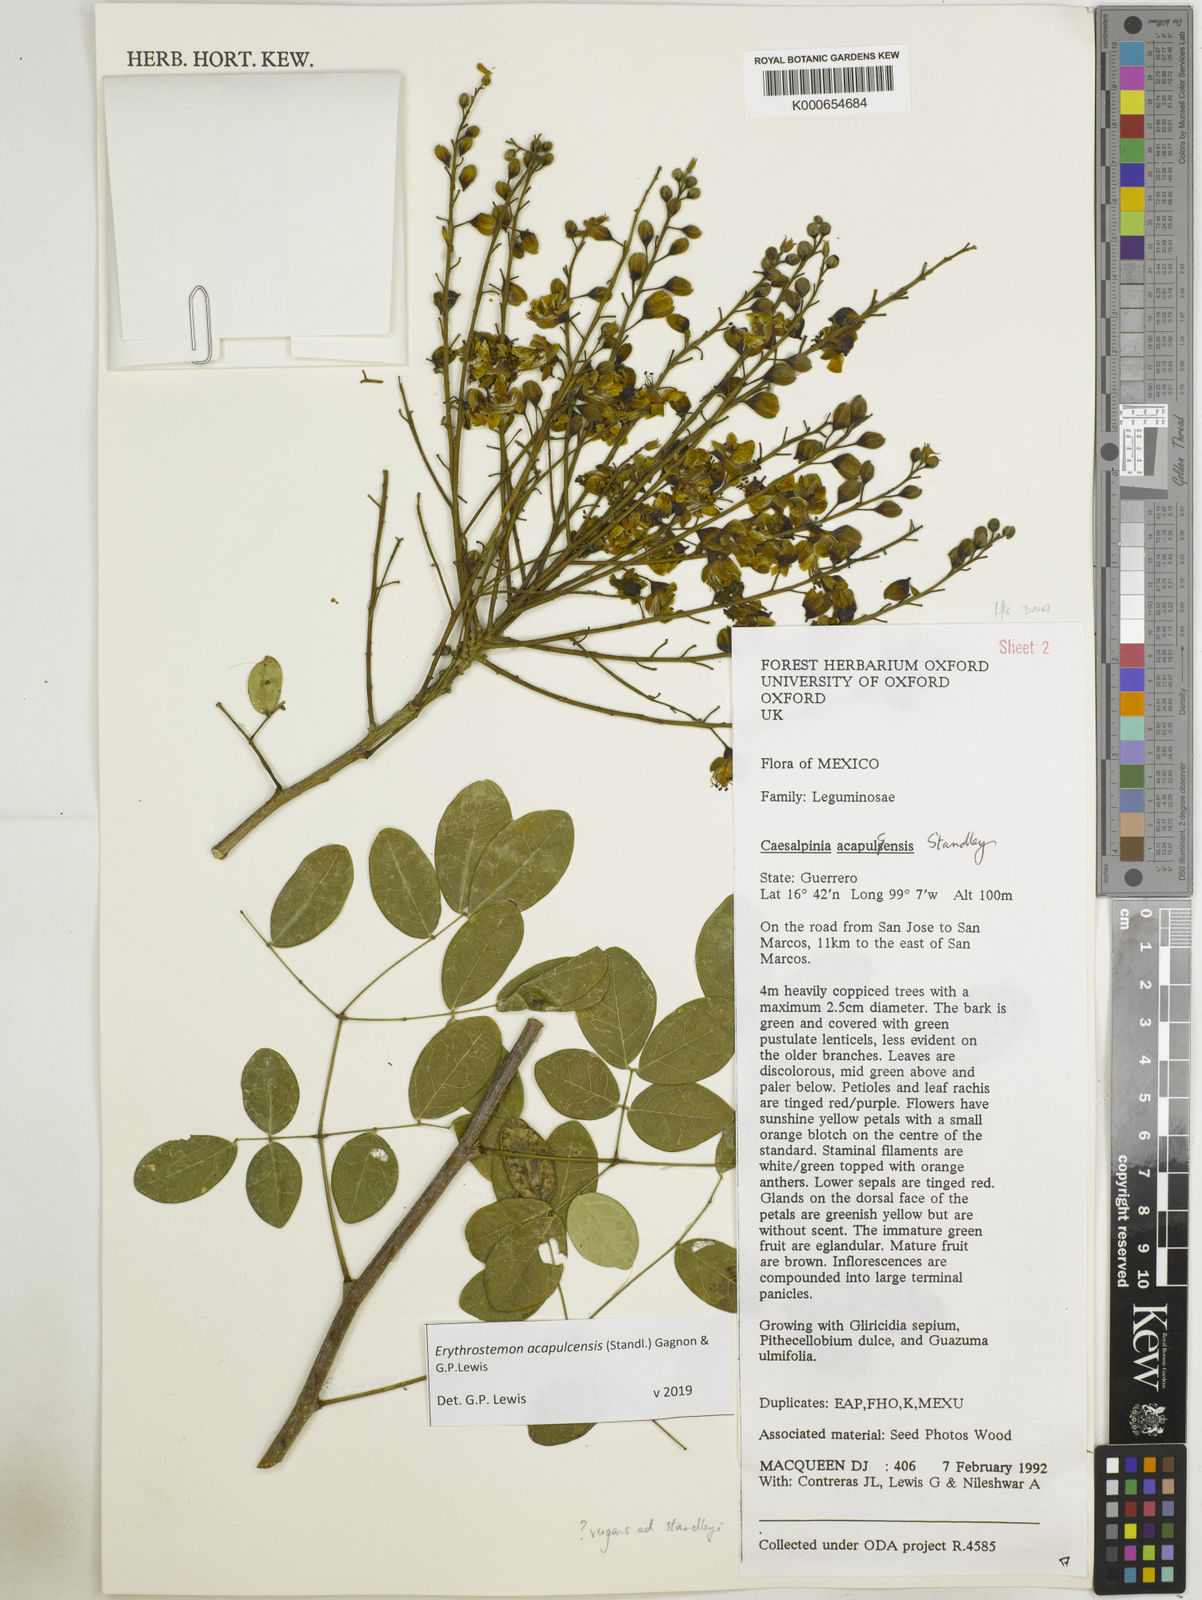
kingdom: Plantae
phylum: Tracheophyta
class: Magnoliopsida
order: Fabales
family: Fabaceae
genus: Erythrostemon
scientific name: Erythrostemon acapulcensis
